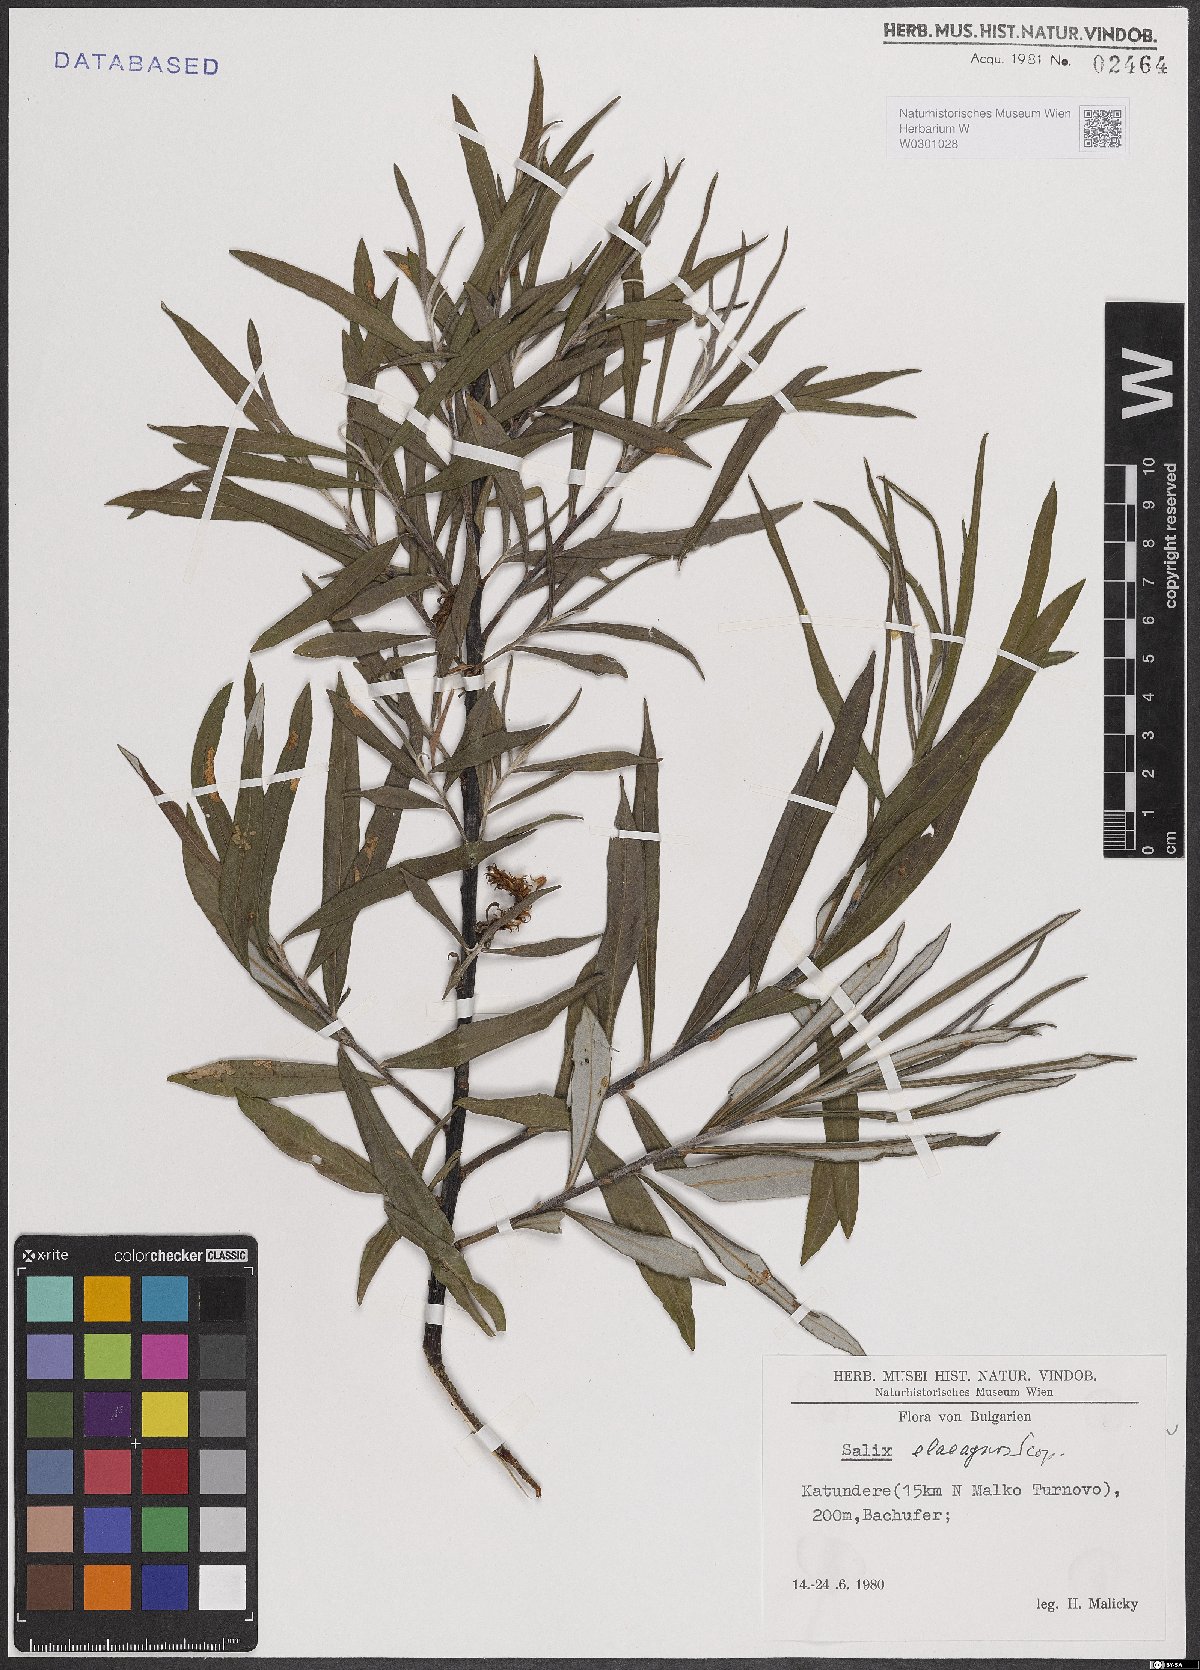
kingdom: Plantae
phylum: Tracheophyta
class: Magnoliopsida
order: Malpighiales
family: Salicaceae
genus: Salix
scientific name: Salix eleagnos
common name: Elaeagnus willow
